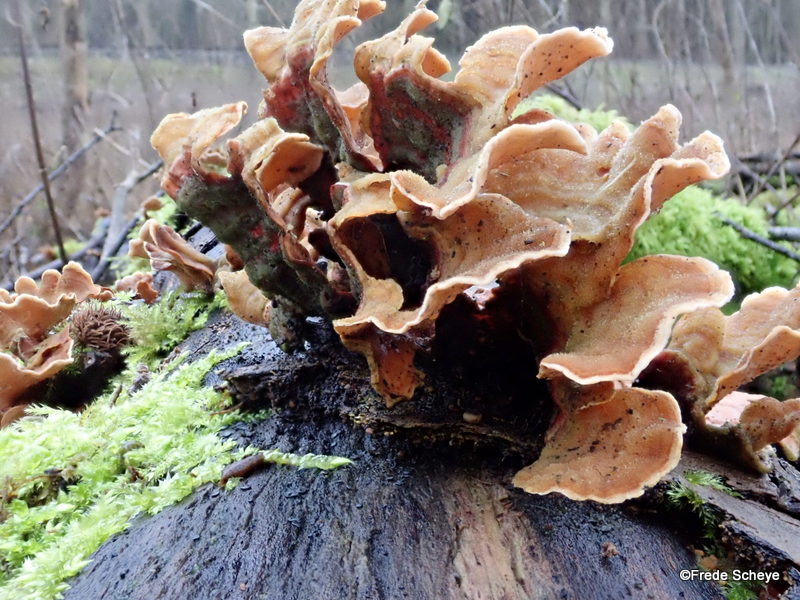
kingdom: Fungi
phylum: Basidiomycota
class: Agaricomycetes
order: Russulales
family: Stereaceae
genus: Stereum
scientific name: Stereum subtomentosum
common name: smuk lædersvamp
